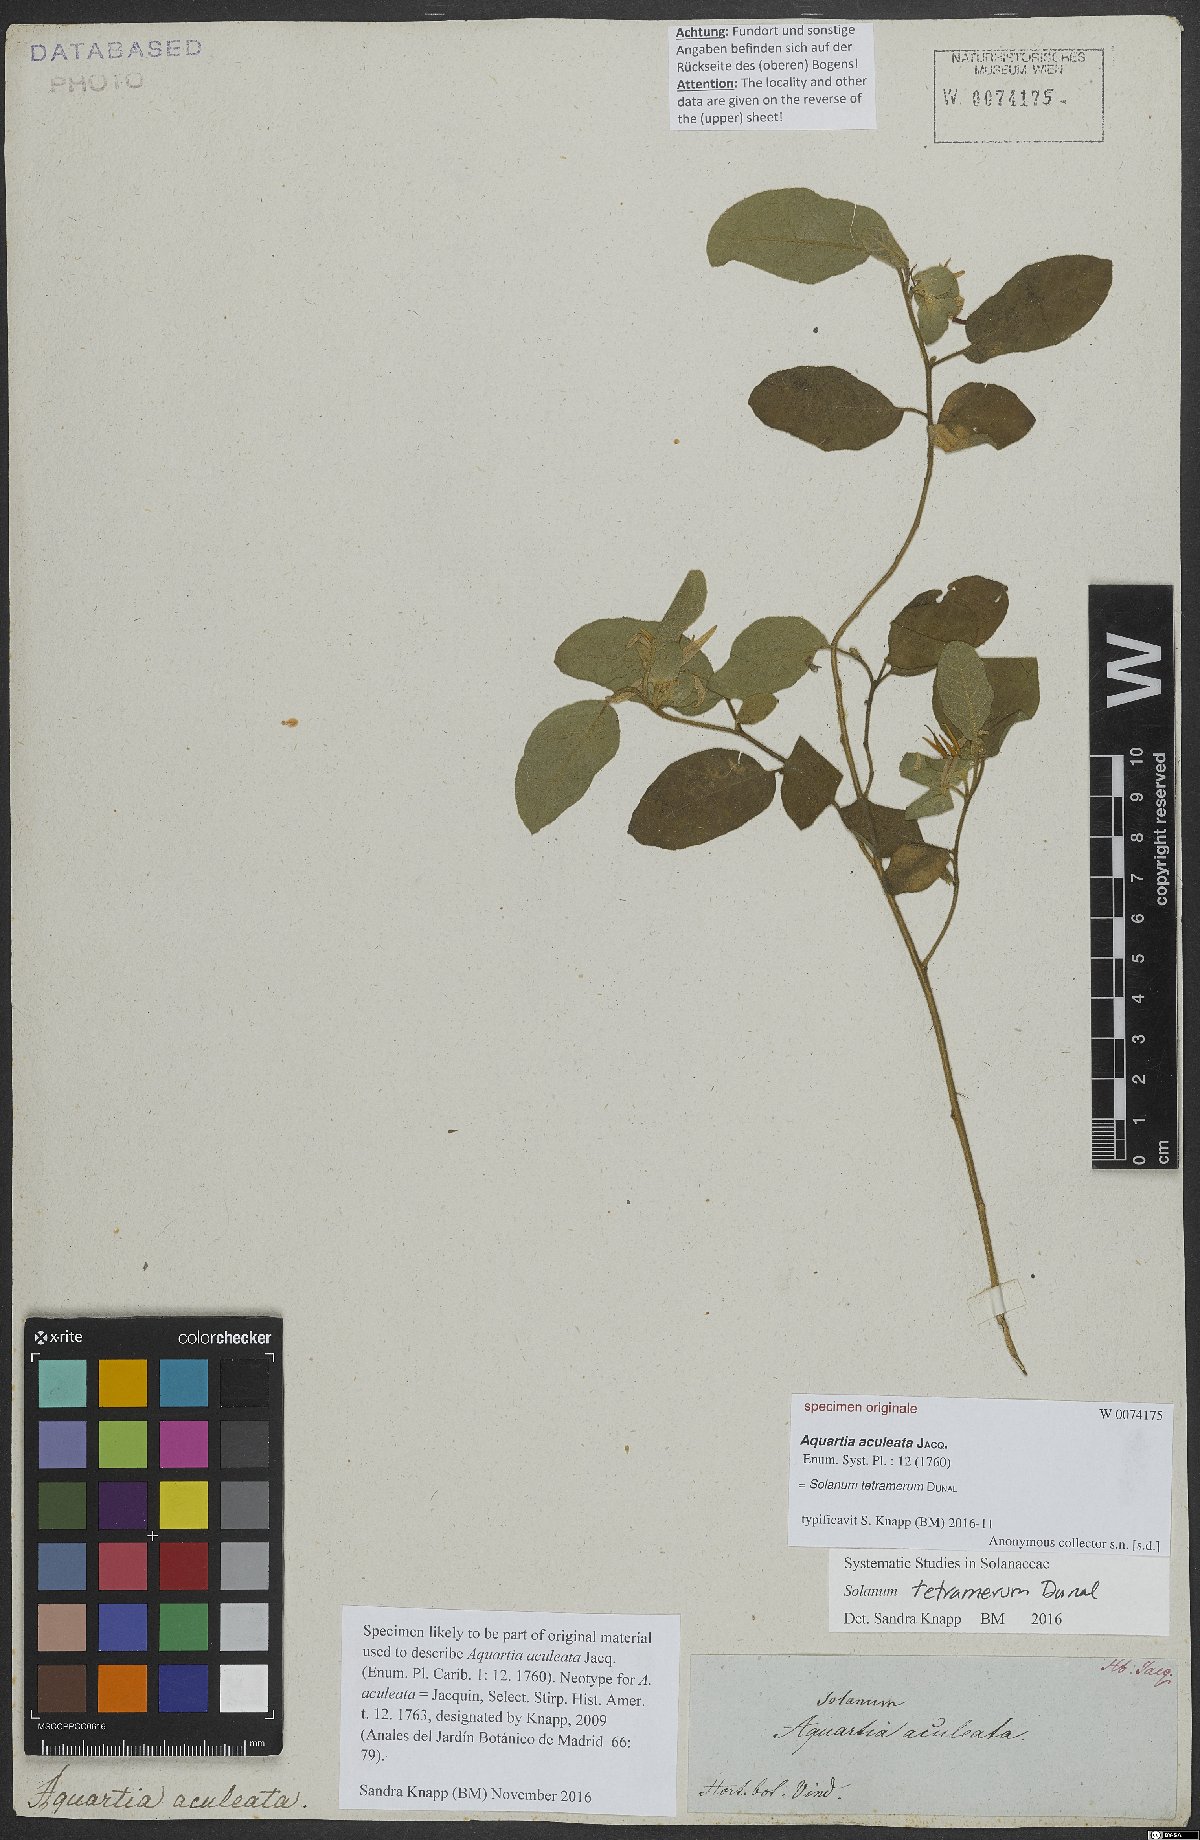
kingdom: Plantae
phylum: Tracheophyta
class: Magnoliopsida
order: Solanales
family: Solanaceae
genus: Solanum
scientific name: Solanum tetramerum
